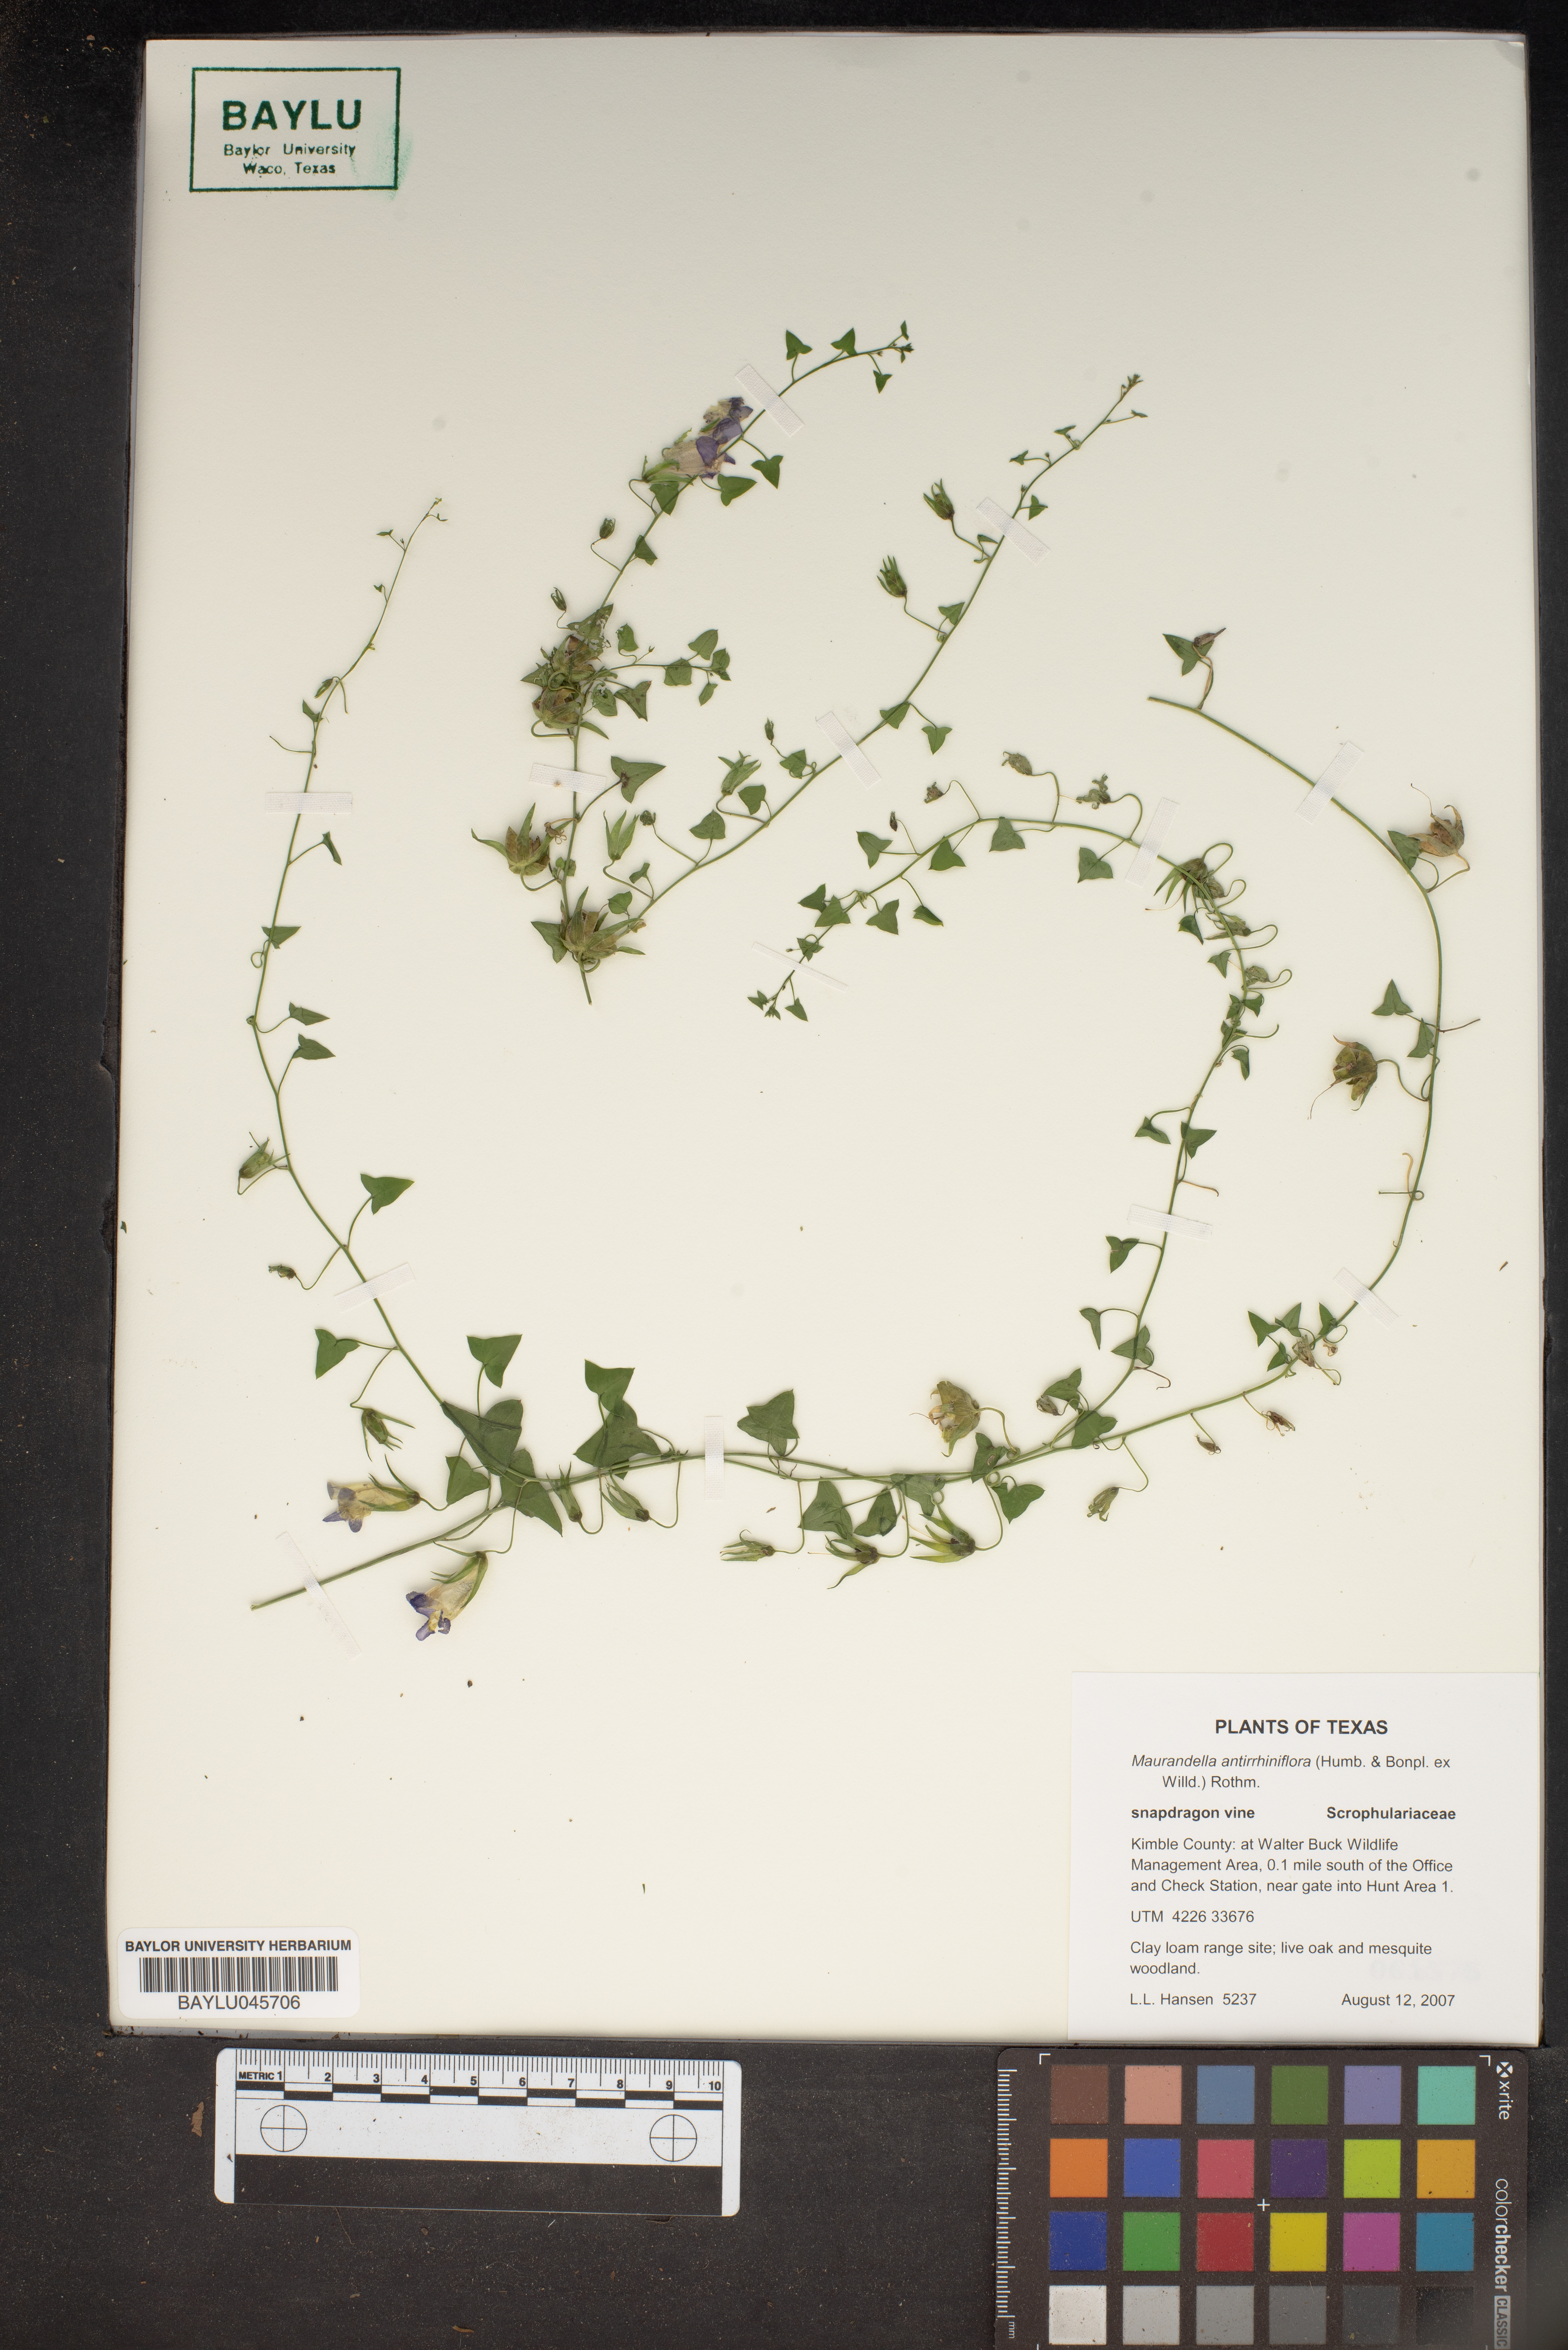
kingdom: Plantae
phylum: Tracheophyta
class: Magnoliopsida
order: Lamiales
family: Plantaginaceae
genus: Maurandella
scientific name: Maurandella antirrhiniflora
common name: Violet twining-snapdragon
